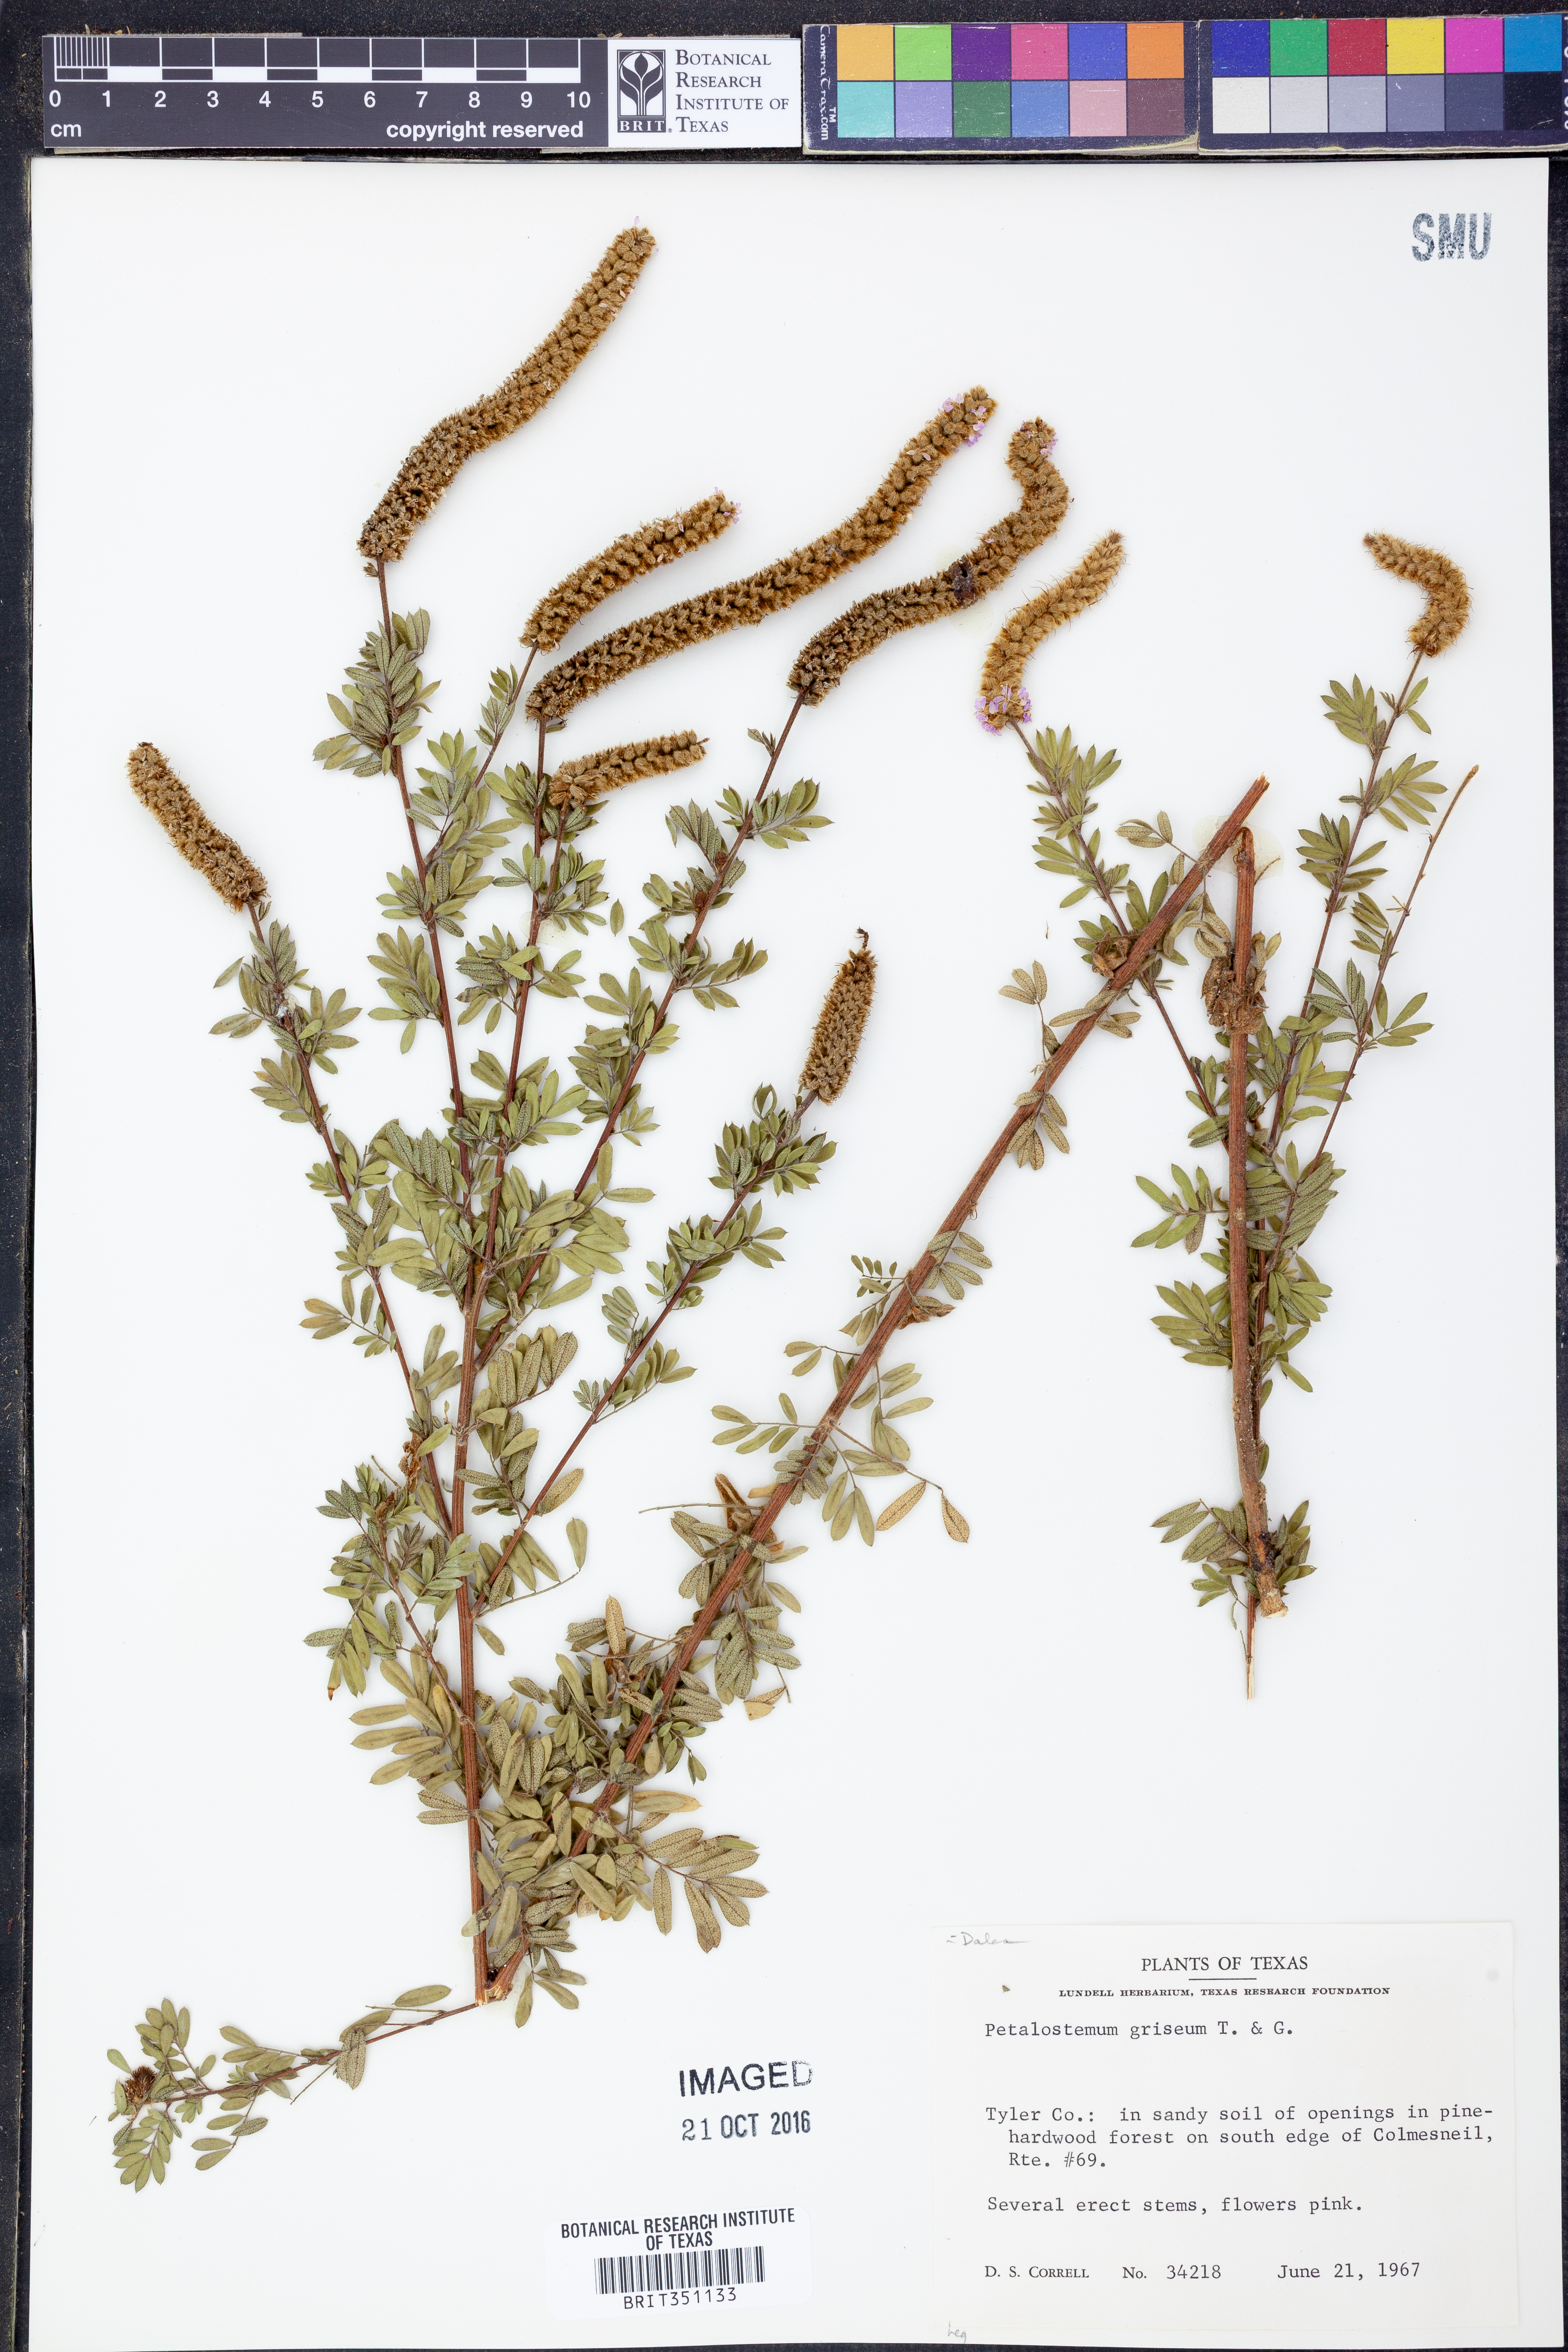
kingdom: Plantae
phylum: Tracheophyta
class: Magnoliopsida
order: Fabales
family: Fabaceae
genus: Dalea
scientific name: Dalea villosa
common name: Silky prairie-clover
